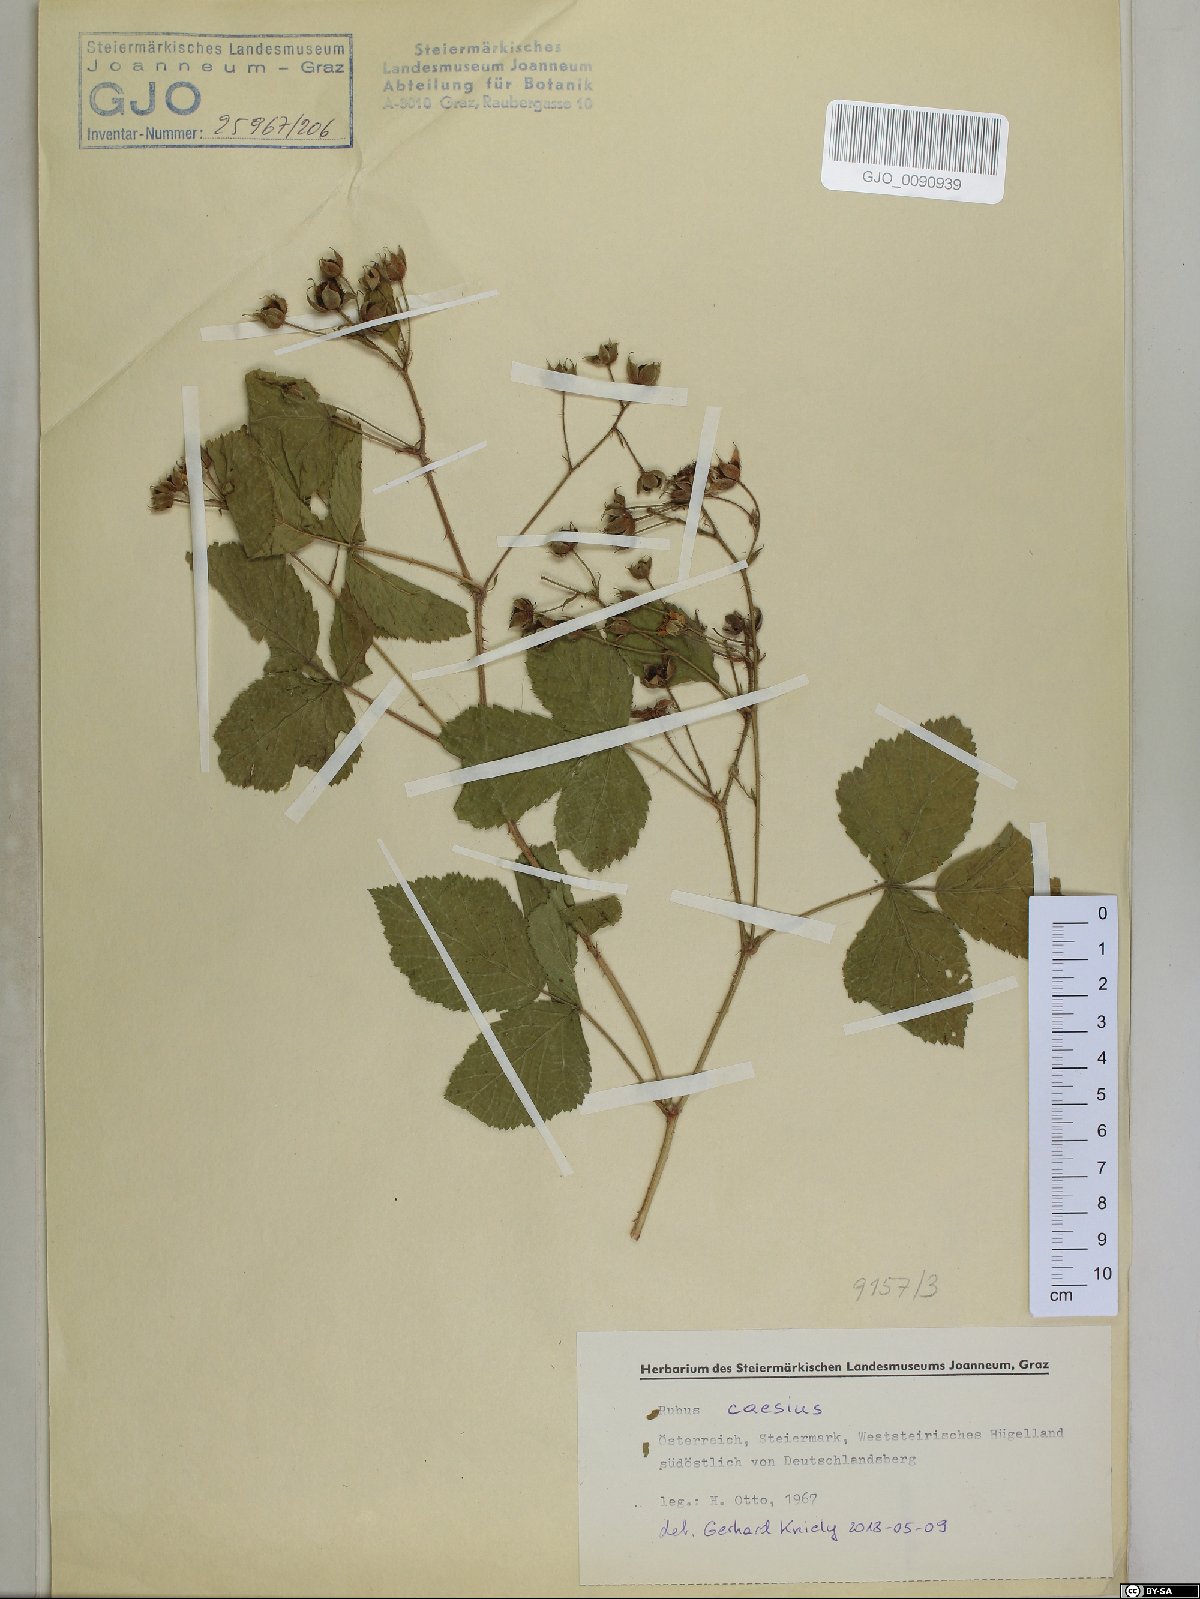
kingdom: Plantae
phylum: Tracheophyta
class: Magnoliopsida
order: Rosales
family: Rosaceae
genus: Rubus
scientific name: Rubus caesius
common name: Dewberry
